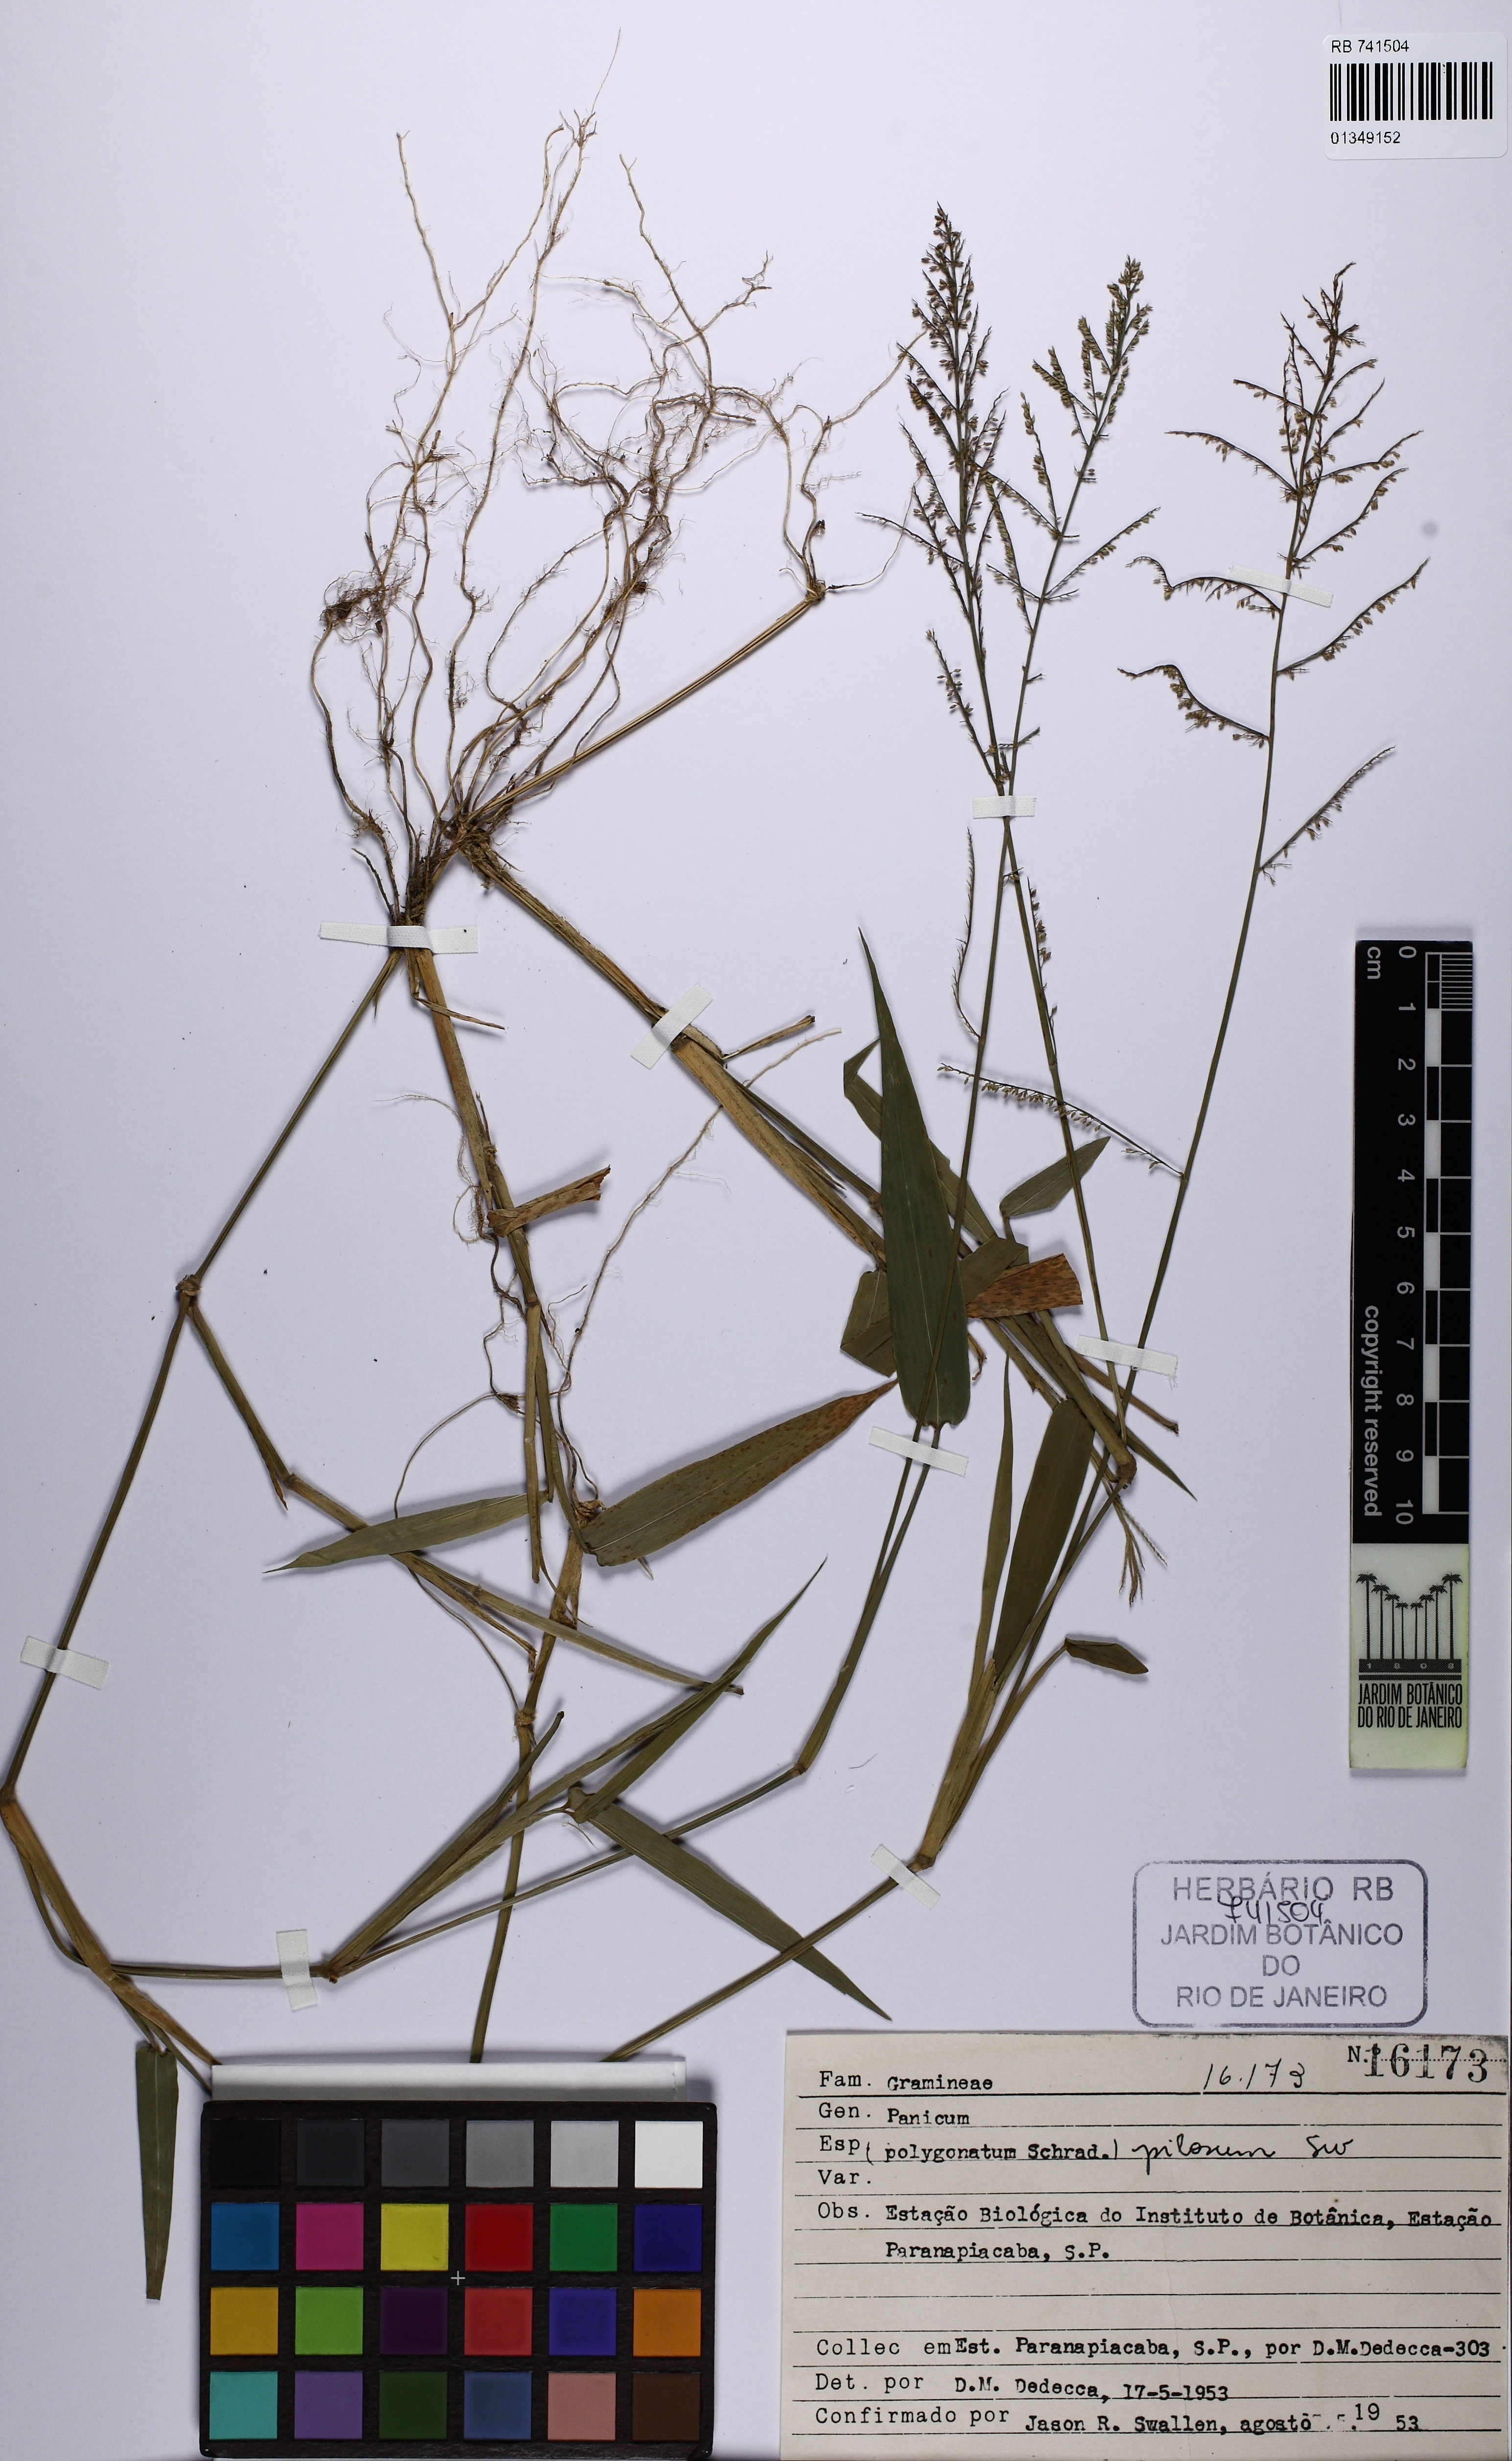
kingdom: Plantae
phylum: Tracheophyta
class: Liliopsida
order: Poales
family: Poaceae
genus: Rugoloa
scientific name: Rugoloa pilosa
